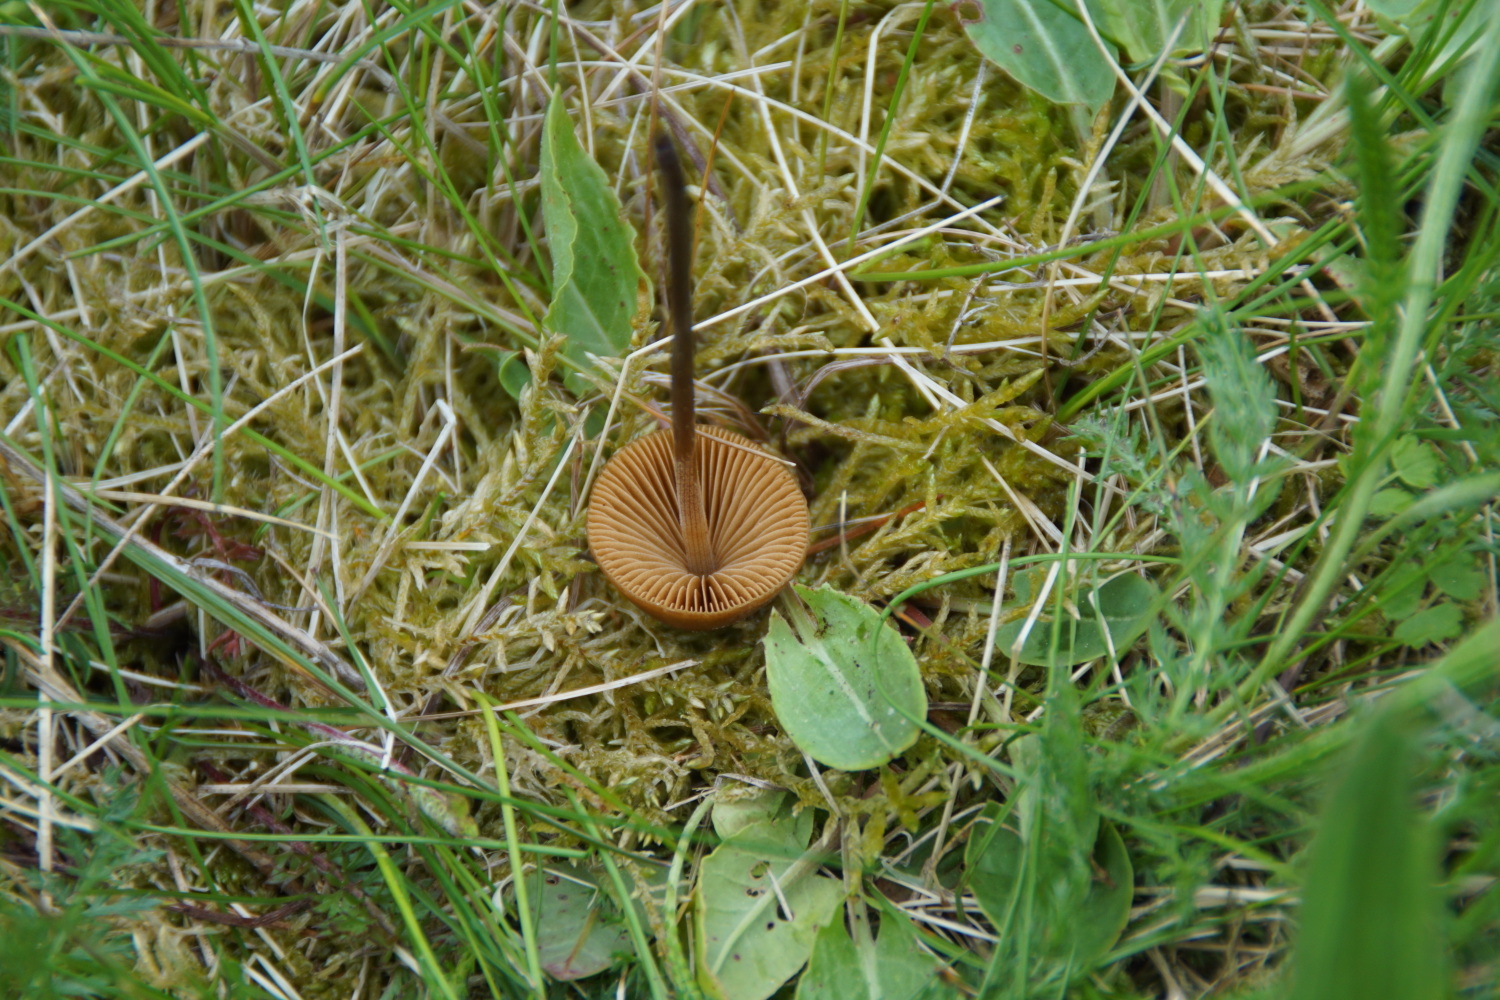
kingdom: Fungi
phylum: Basidiomycota
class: Agaricomycetes
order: Agaricales
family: Bolbitiaceae
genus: Conocybe
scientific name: Conocybe
